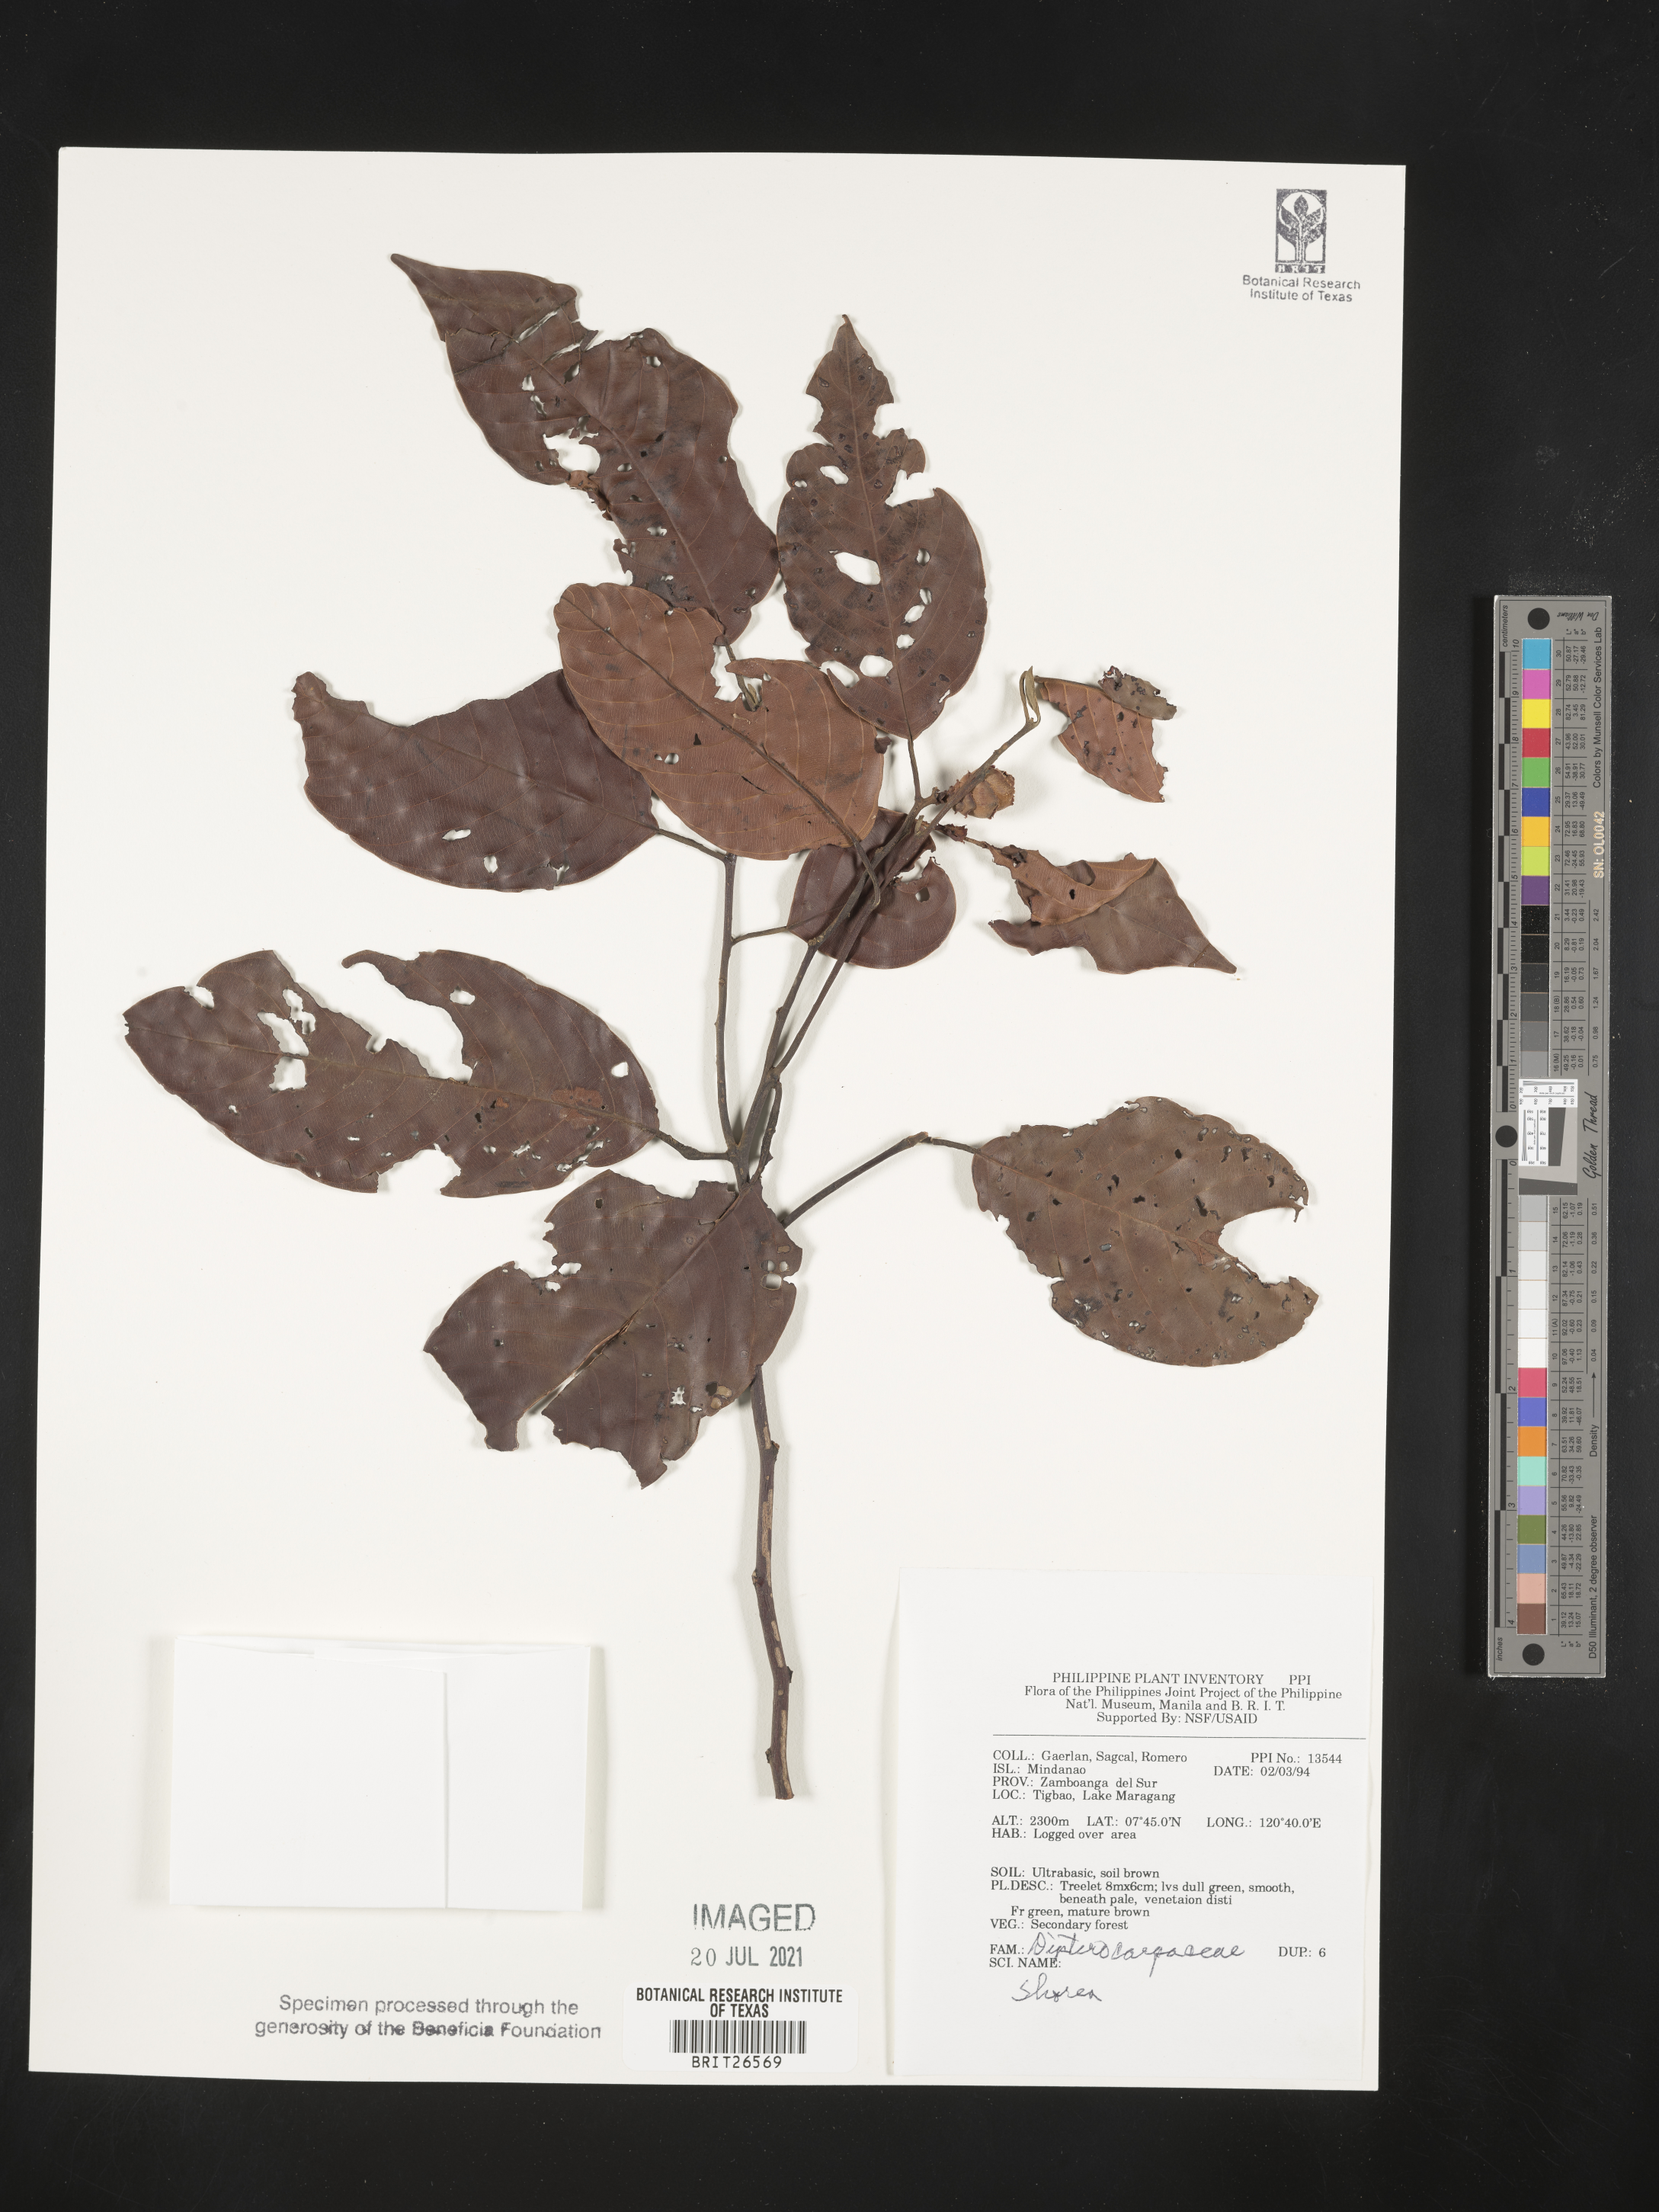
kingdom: Plantae
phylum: Tracheophyta
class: Magnoliopsida
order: Malvales
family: Dipterocarpaceae
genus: Shorea
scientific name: Shorea
